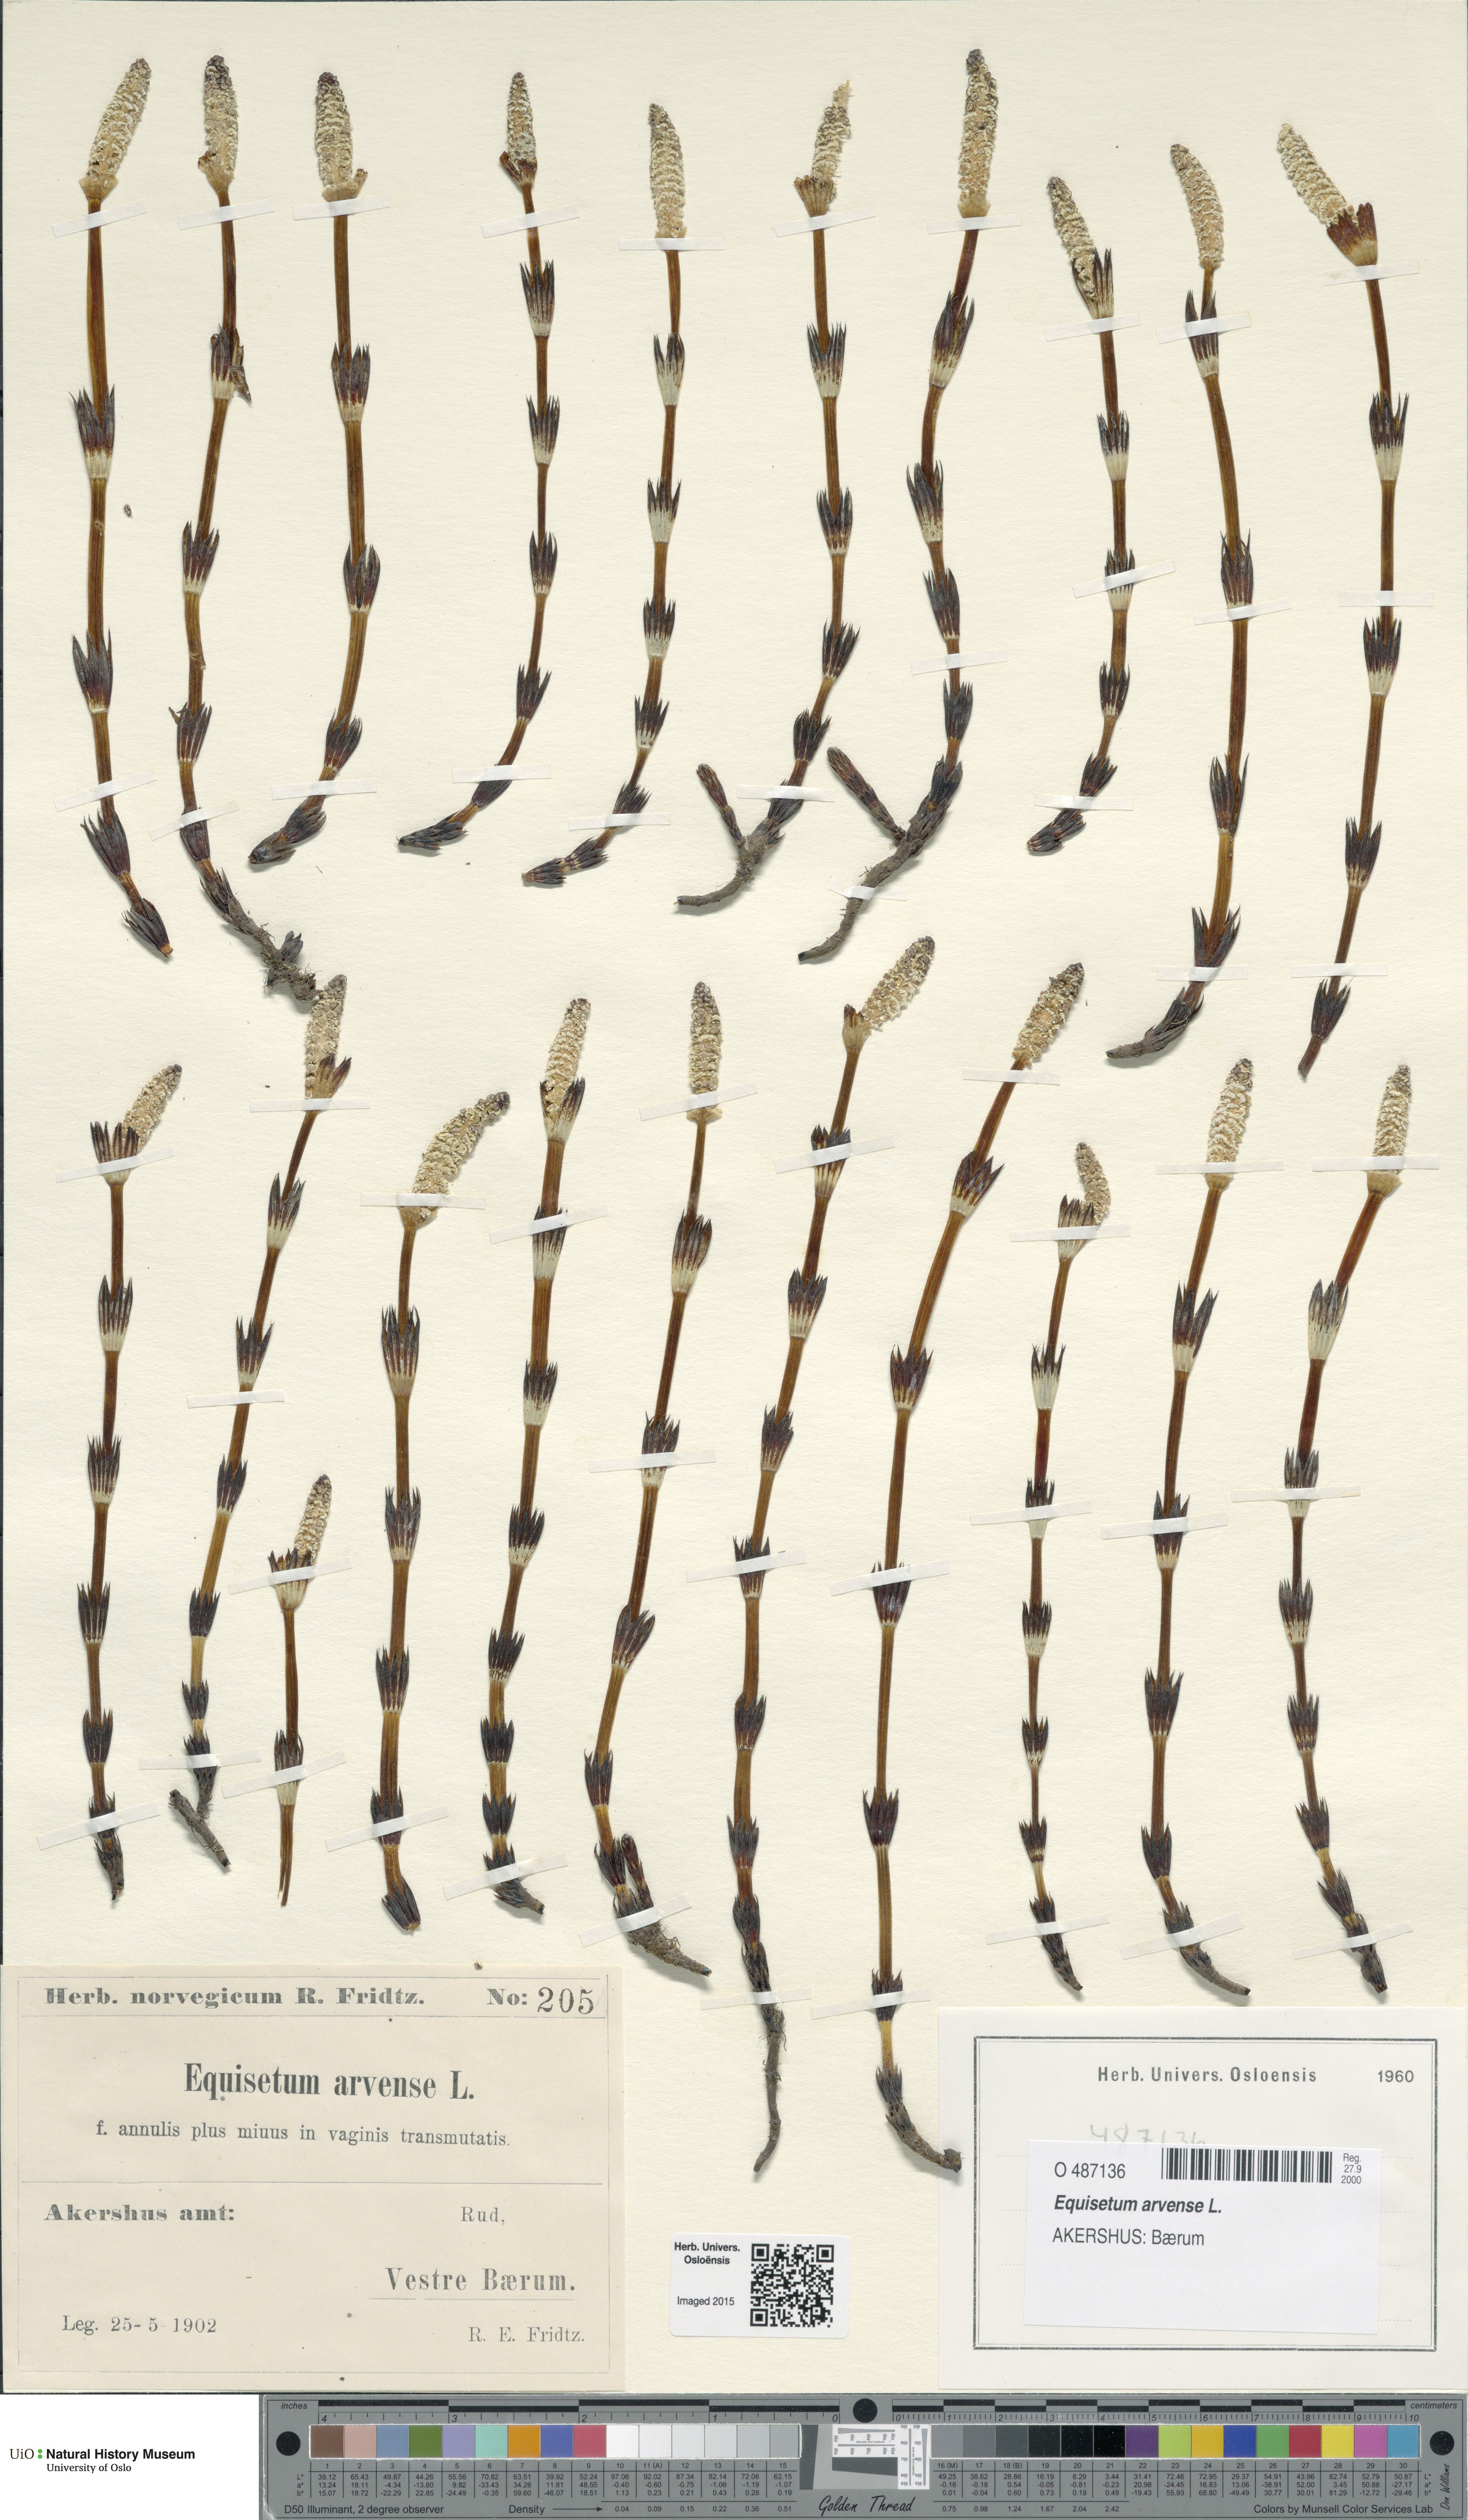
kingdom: Plantae
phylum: Tracheophyta
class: Polypodiopsida
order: Equisetales
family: Equisetaceae
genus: Equisetum
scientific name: Equisetum arvense
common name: Field horsetail
